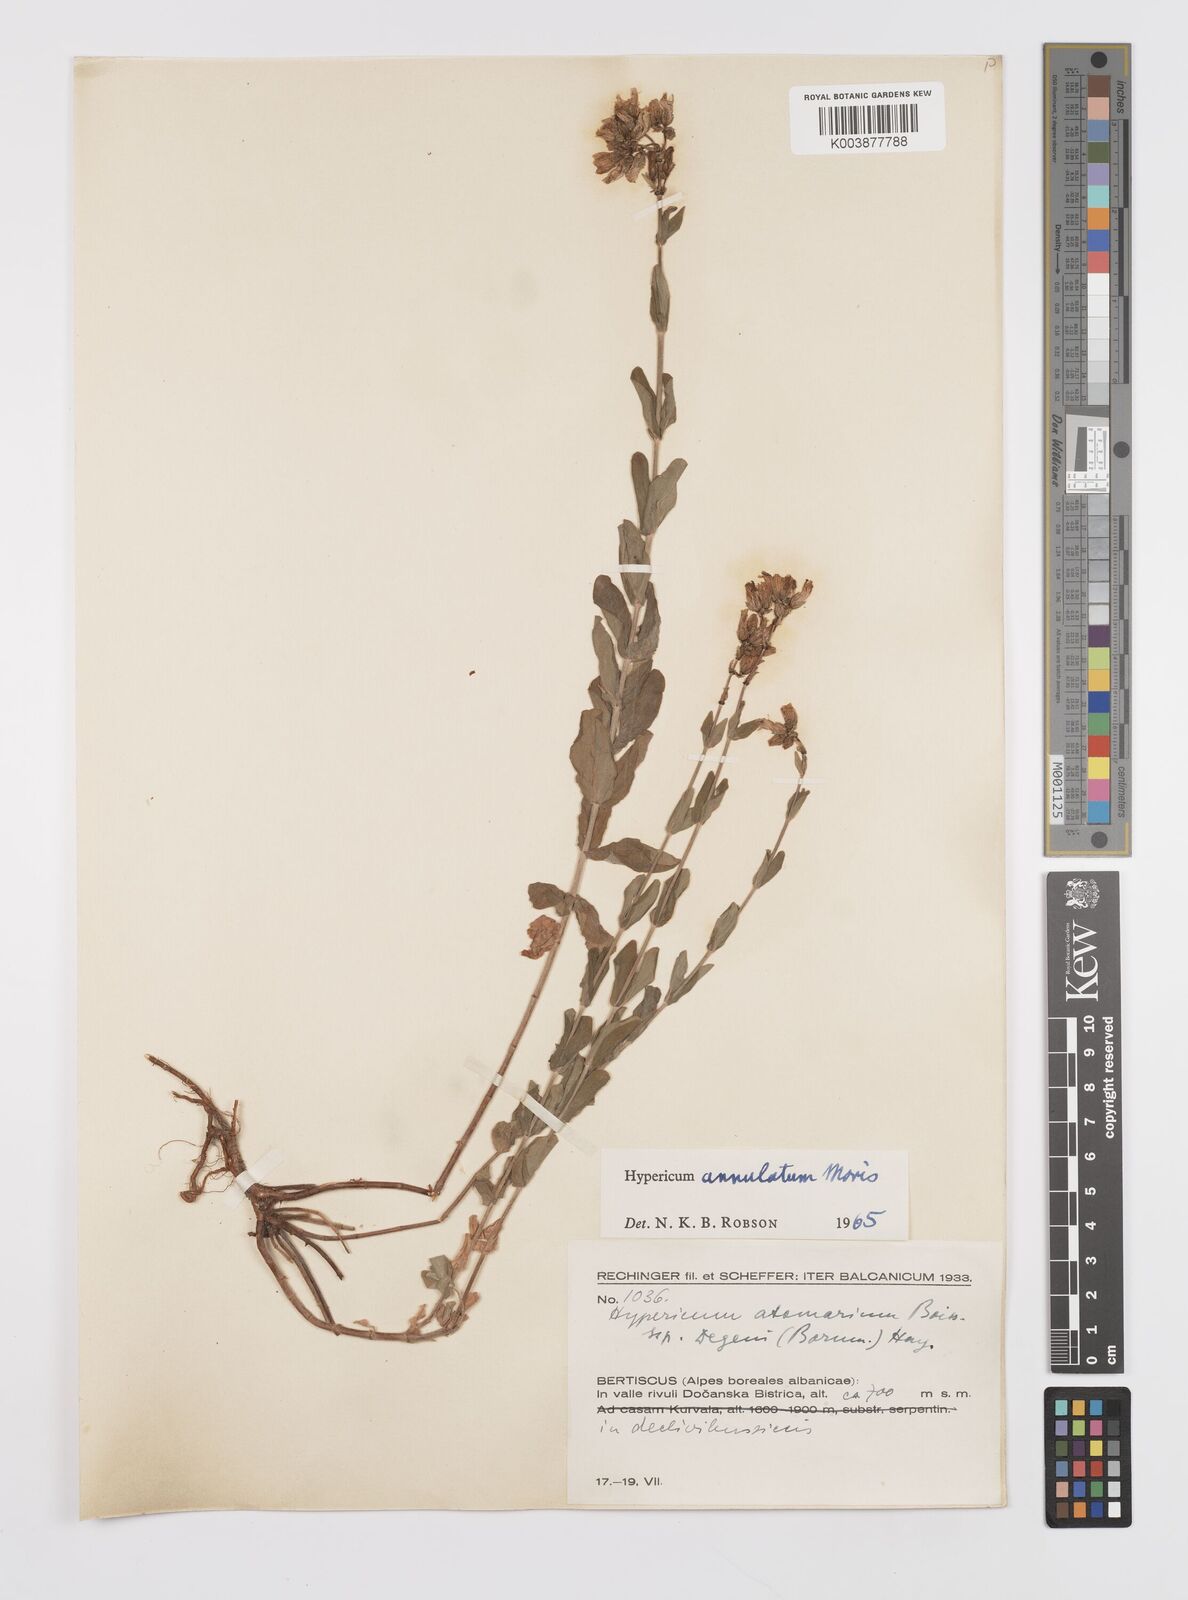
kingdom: Plantae
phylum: Tracheophyta
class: Magnoliopsida
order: Malpighiales
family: Hypericaceae
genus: Hypericum
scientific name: Hypericum annulatum
